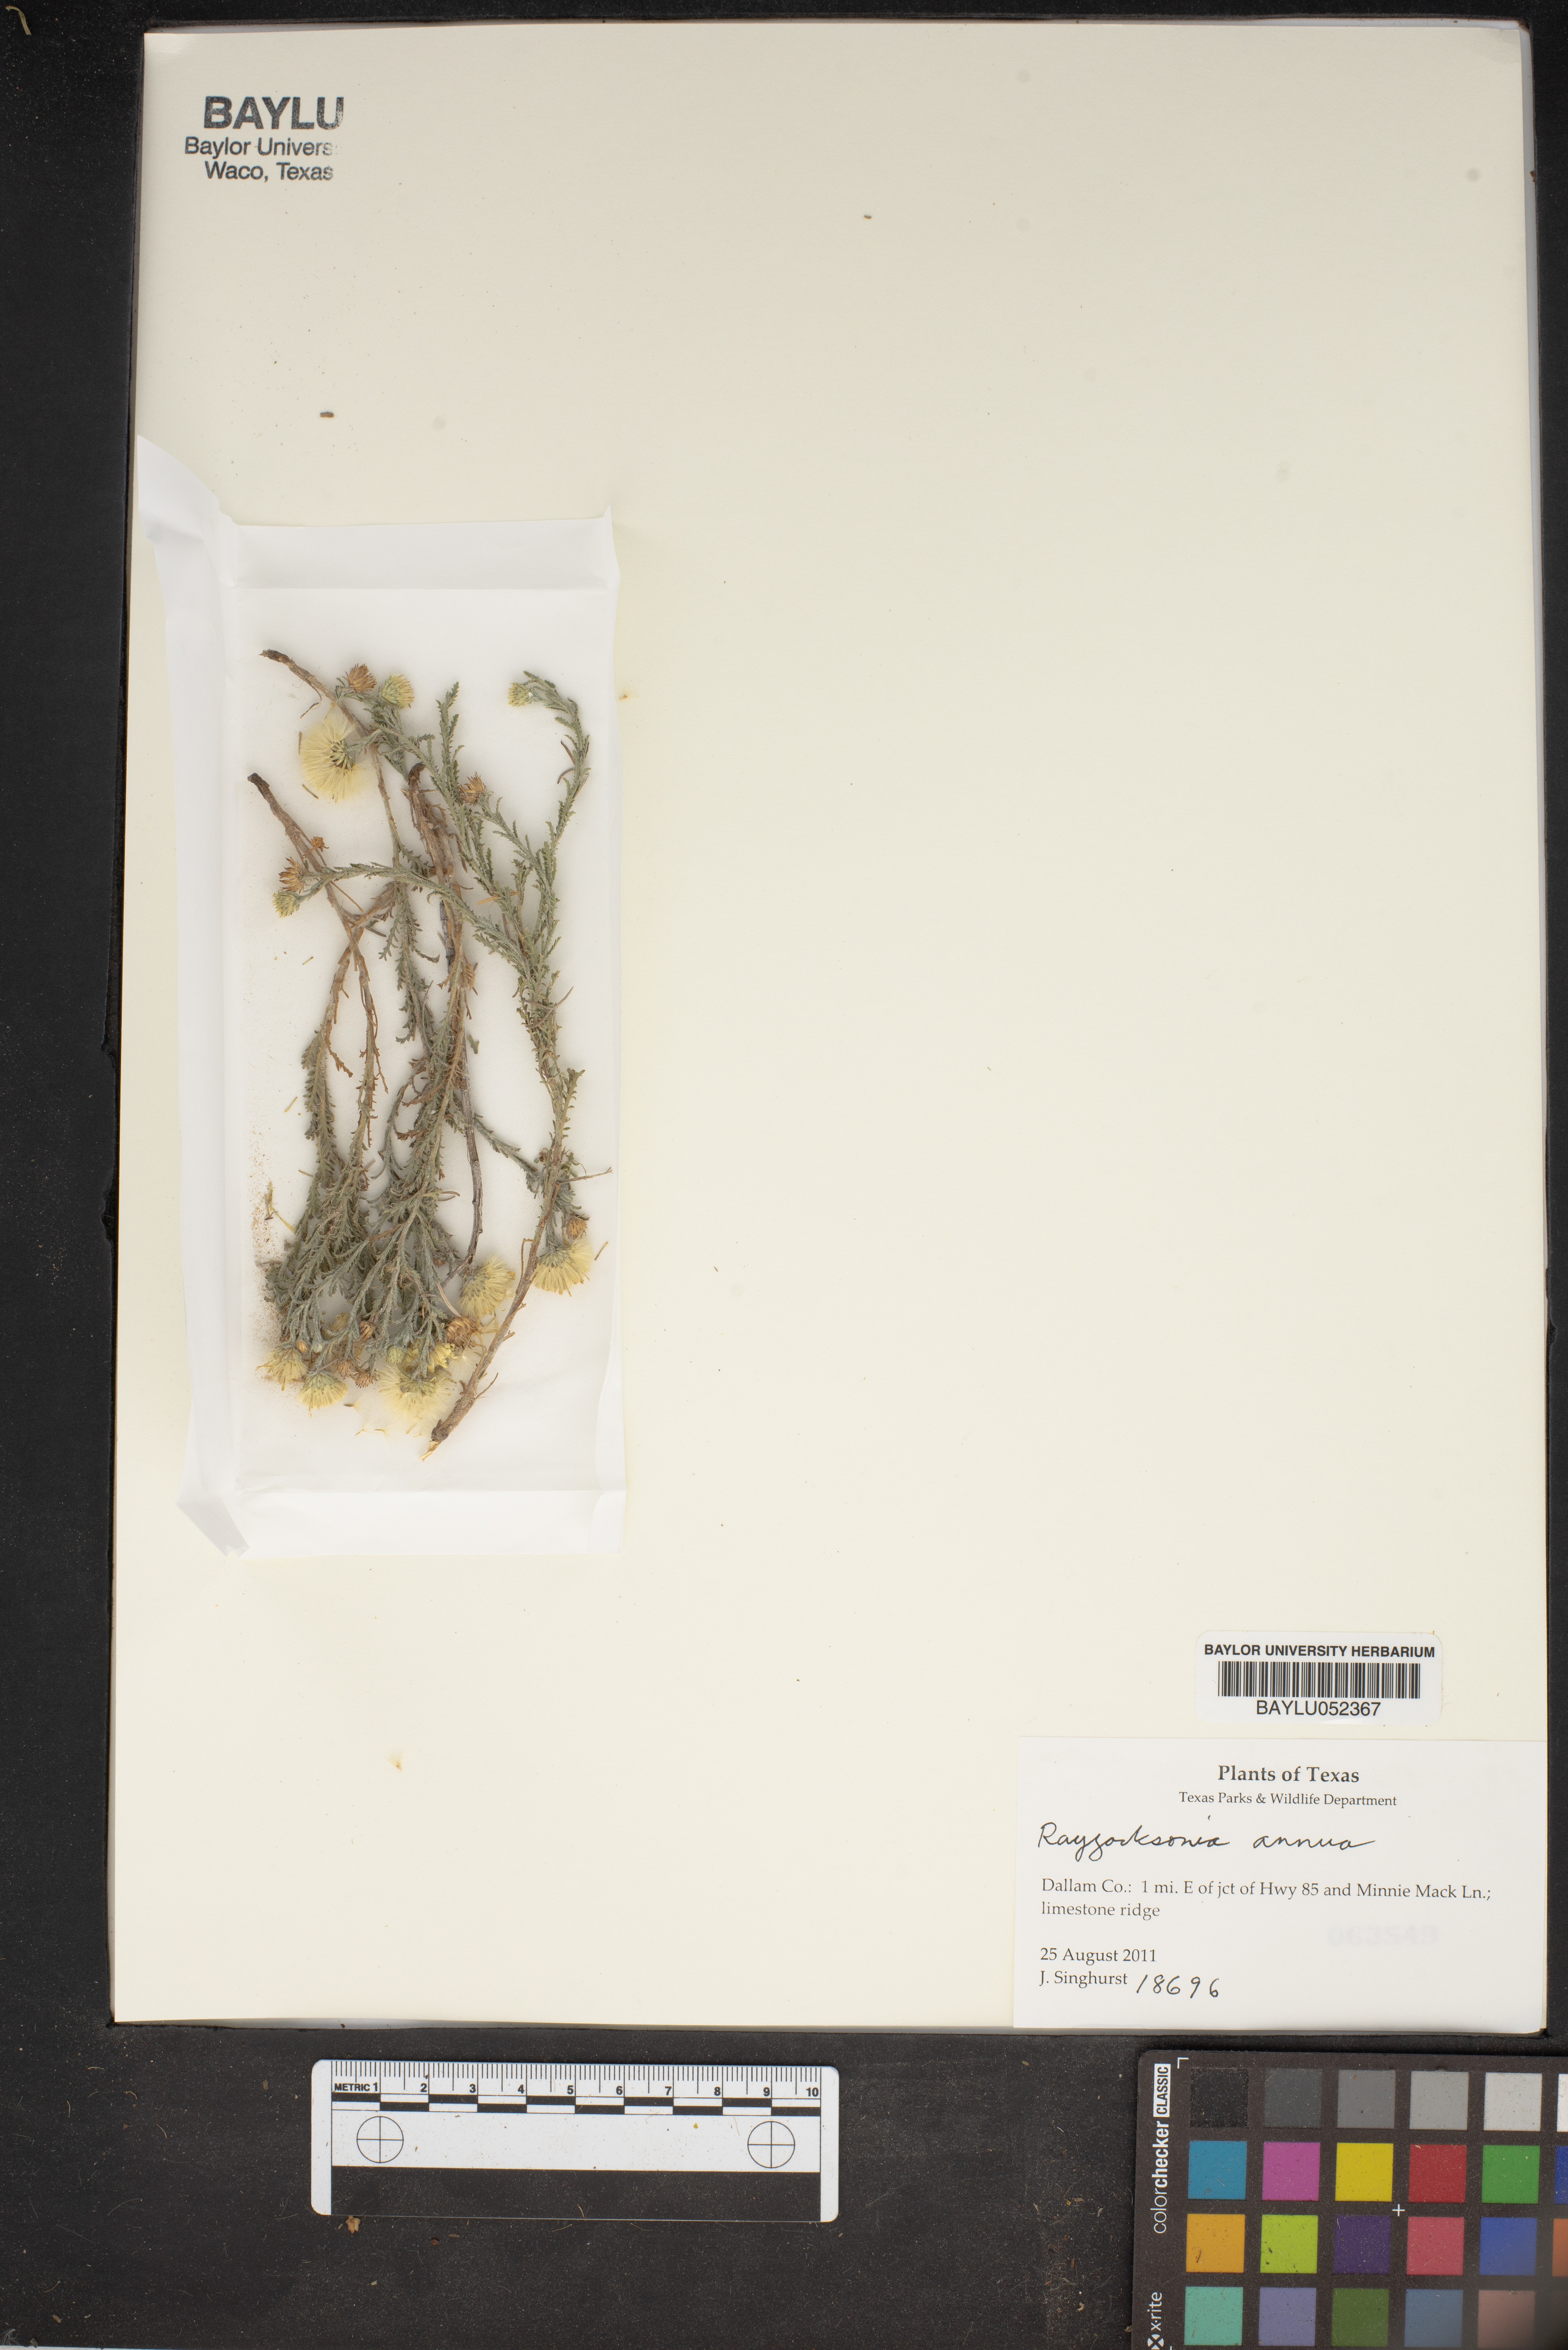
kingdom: Plantae
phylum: Tracheophyta
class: Magnoliopsida
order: Asterales
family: Asteraceae
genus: Rayjacksonia
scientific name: Rayjacksonia annua
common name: Viscid camphor daisy
